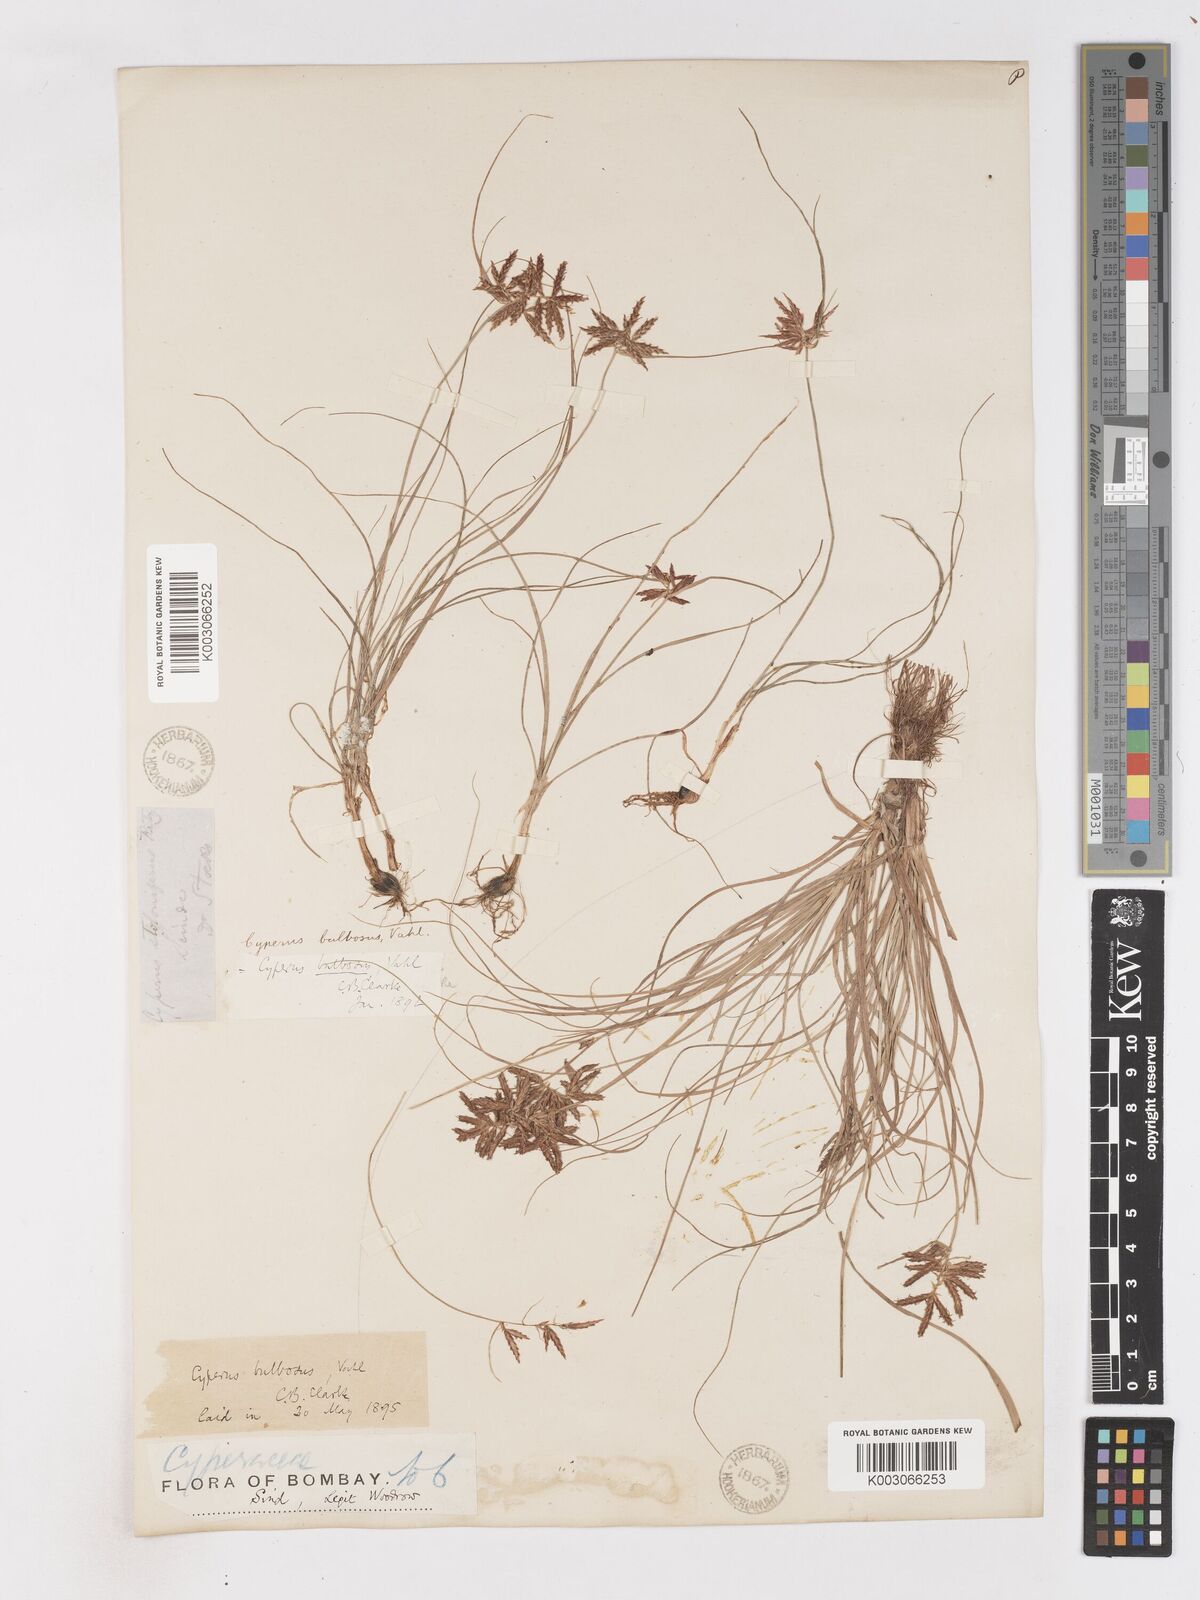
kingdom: Plantae
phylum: Tracheophyta
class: Liliopsida
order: Poales
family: Cyperaceae
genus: Cyperus
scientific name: Cyperus bulbosus
